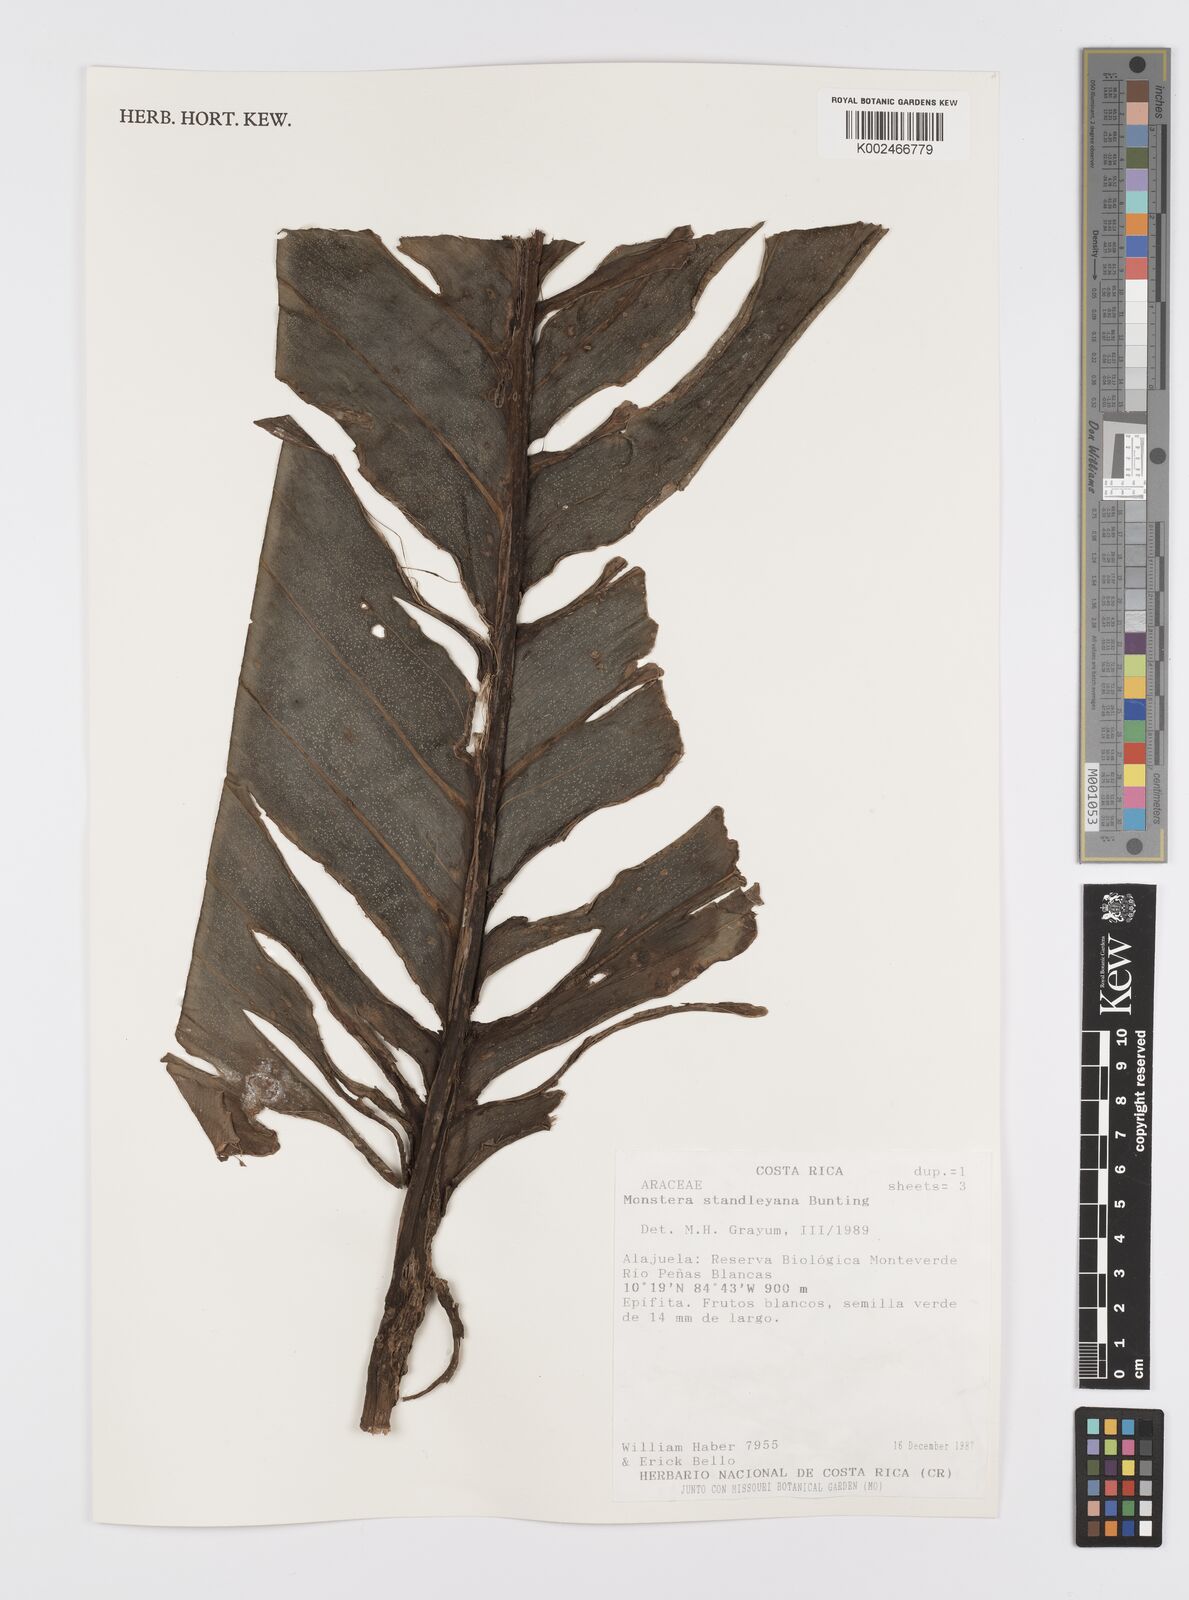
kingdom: Plantae
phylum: Tracheophyta
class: Liliopsida
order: Alismatales
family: Araceae
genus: Monstera
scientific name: Monstera standleyana
